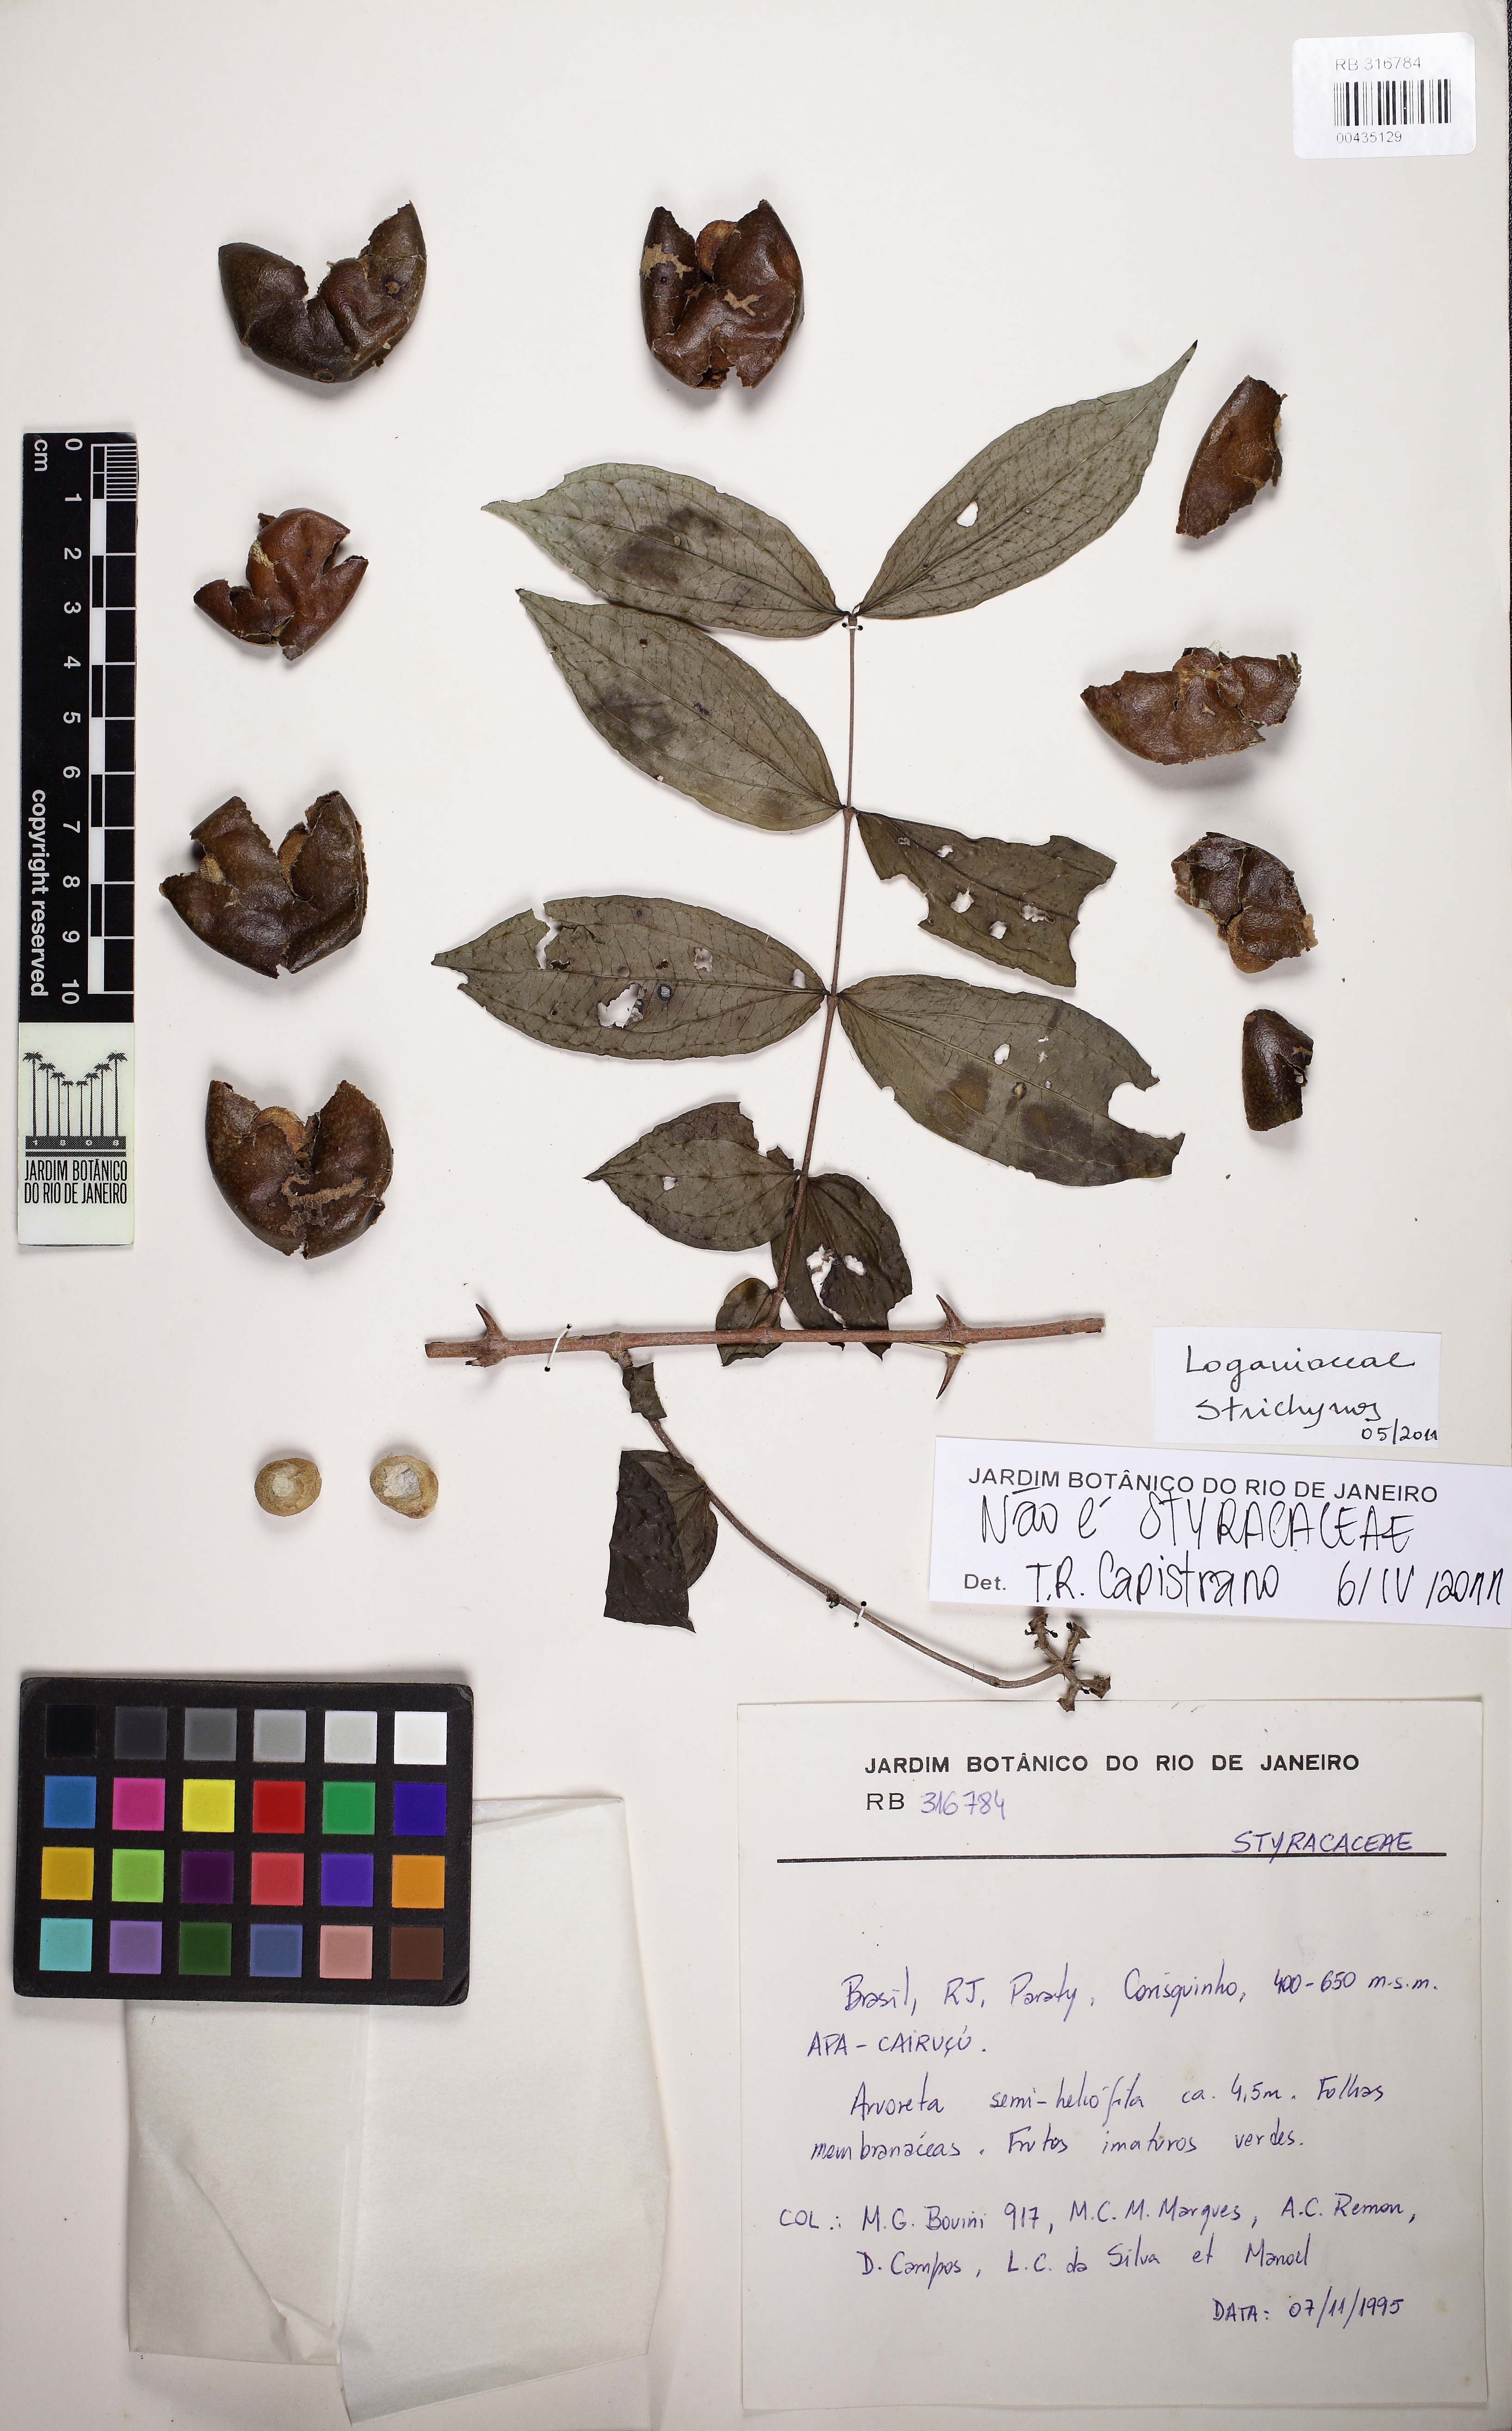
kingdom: Plantae
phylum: Tracheophyta
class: Magnoliopsida
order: Gentianales
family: Loganiaceae
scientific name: Loganiaceae
